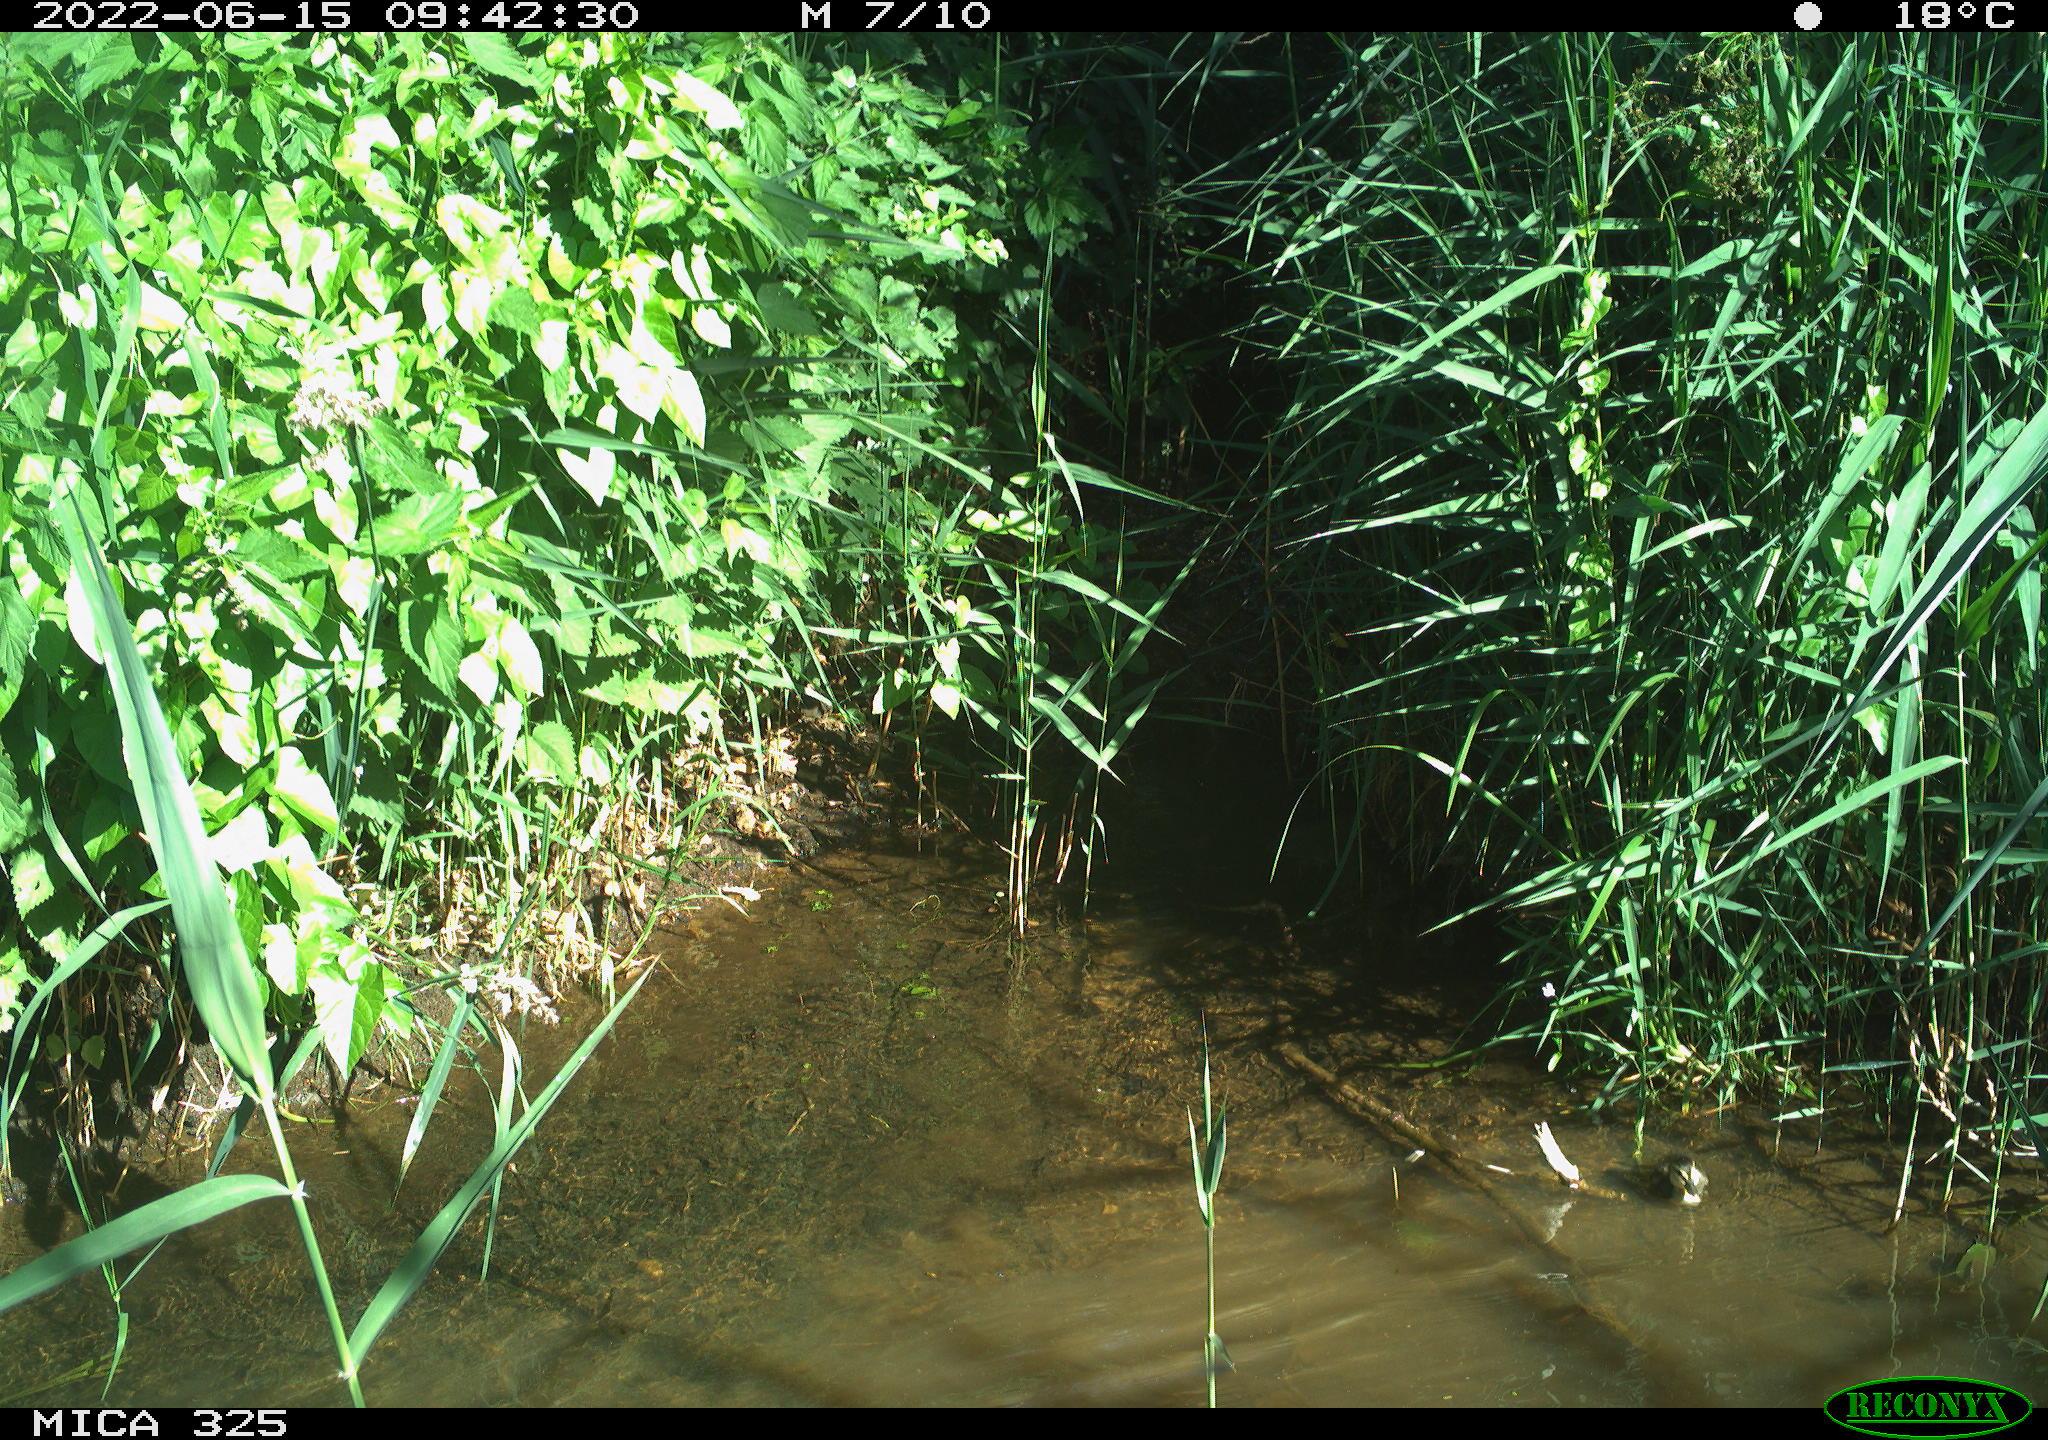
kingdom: Animalia
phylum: Chordata
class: Aves
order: Anseriformes
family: Anatidae
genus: Anas
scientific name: Anas platyrhynchos
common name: Mallard
